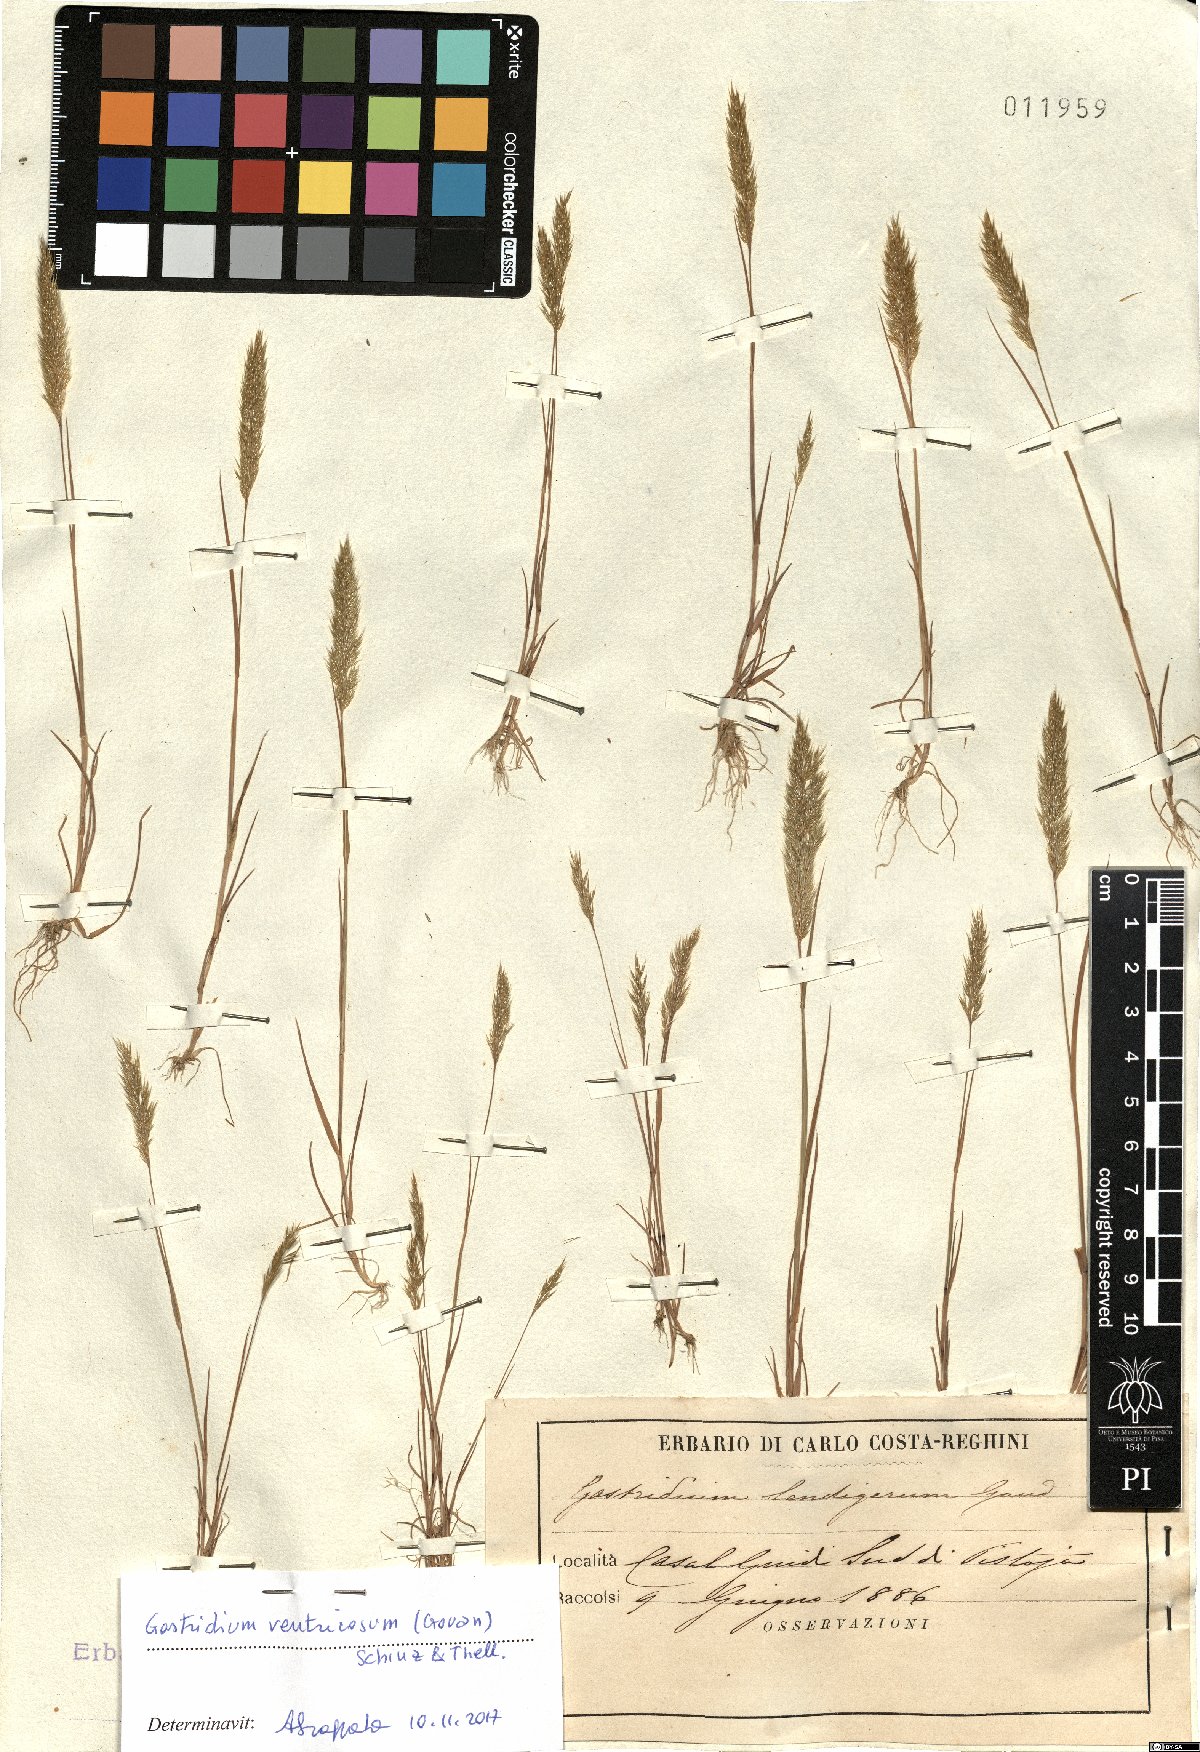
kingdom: Plantae
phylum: Tracheophyta
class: Liliopsida
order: Poales
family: Poaceae
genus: Gastridium
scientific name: Gastridium ventricosum
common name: Nit-grass
